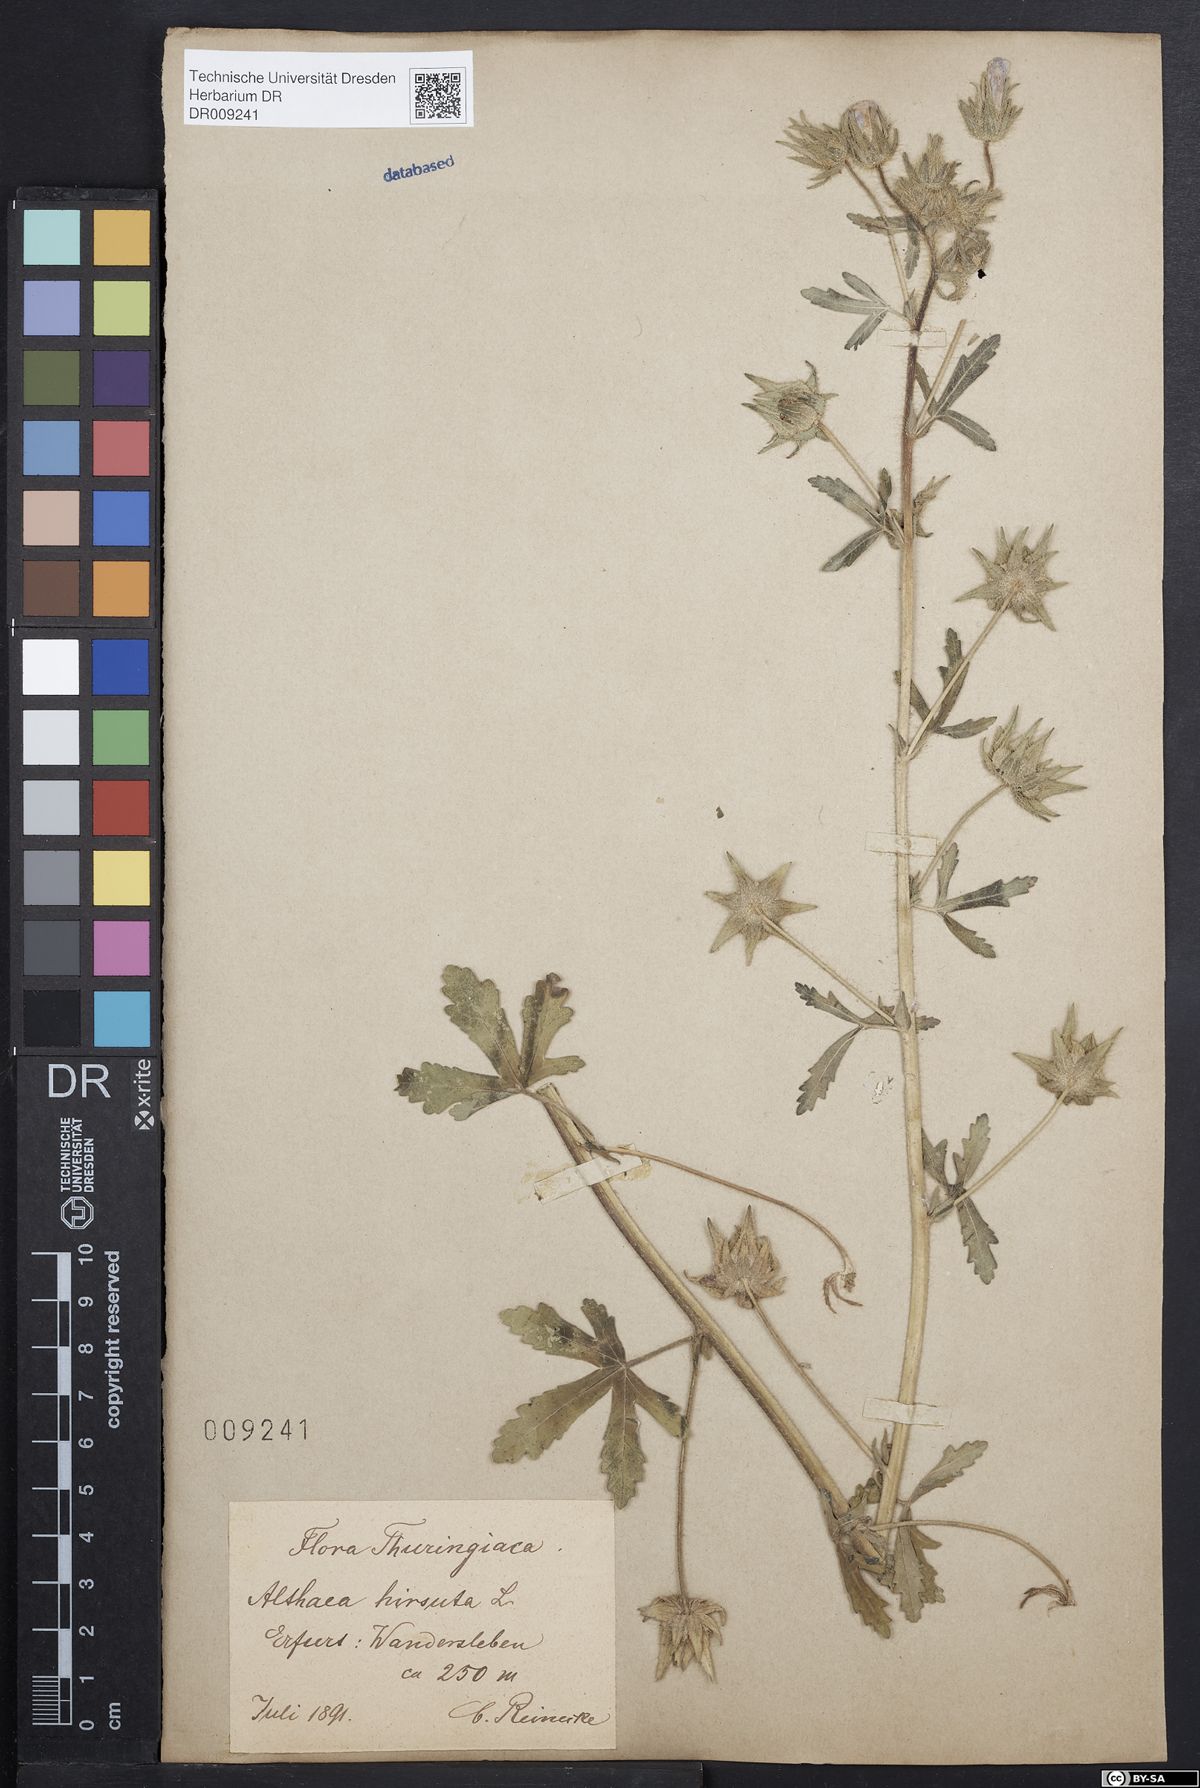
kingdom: Plantae
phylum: Tracheophyta
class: Magnoliopsida
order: Malvales
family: Malvaceae
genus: Althaea
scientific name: Althaea hirsuta
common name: Rough marsh-mallow
